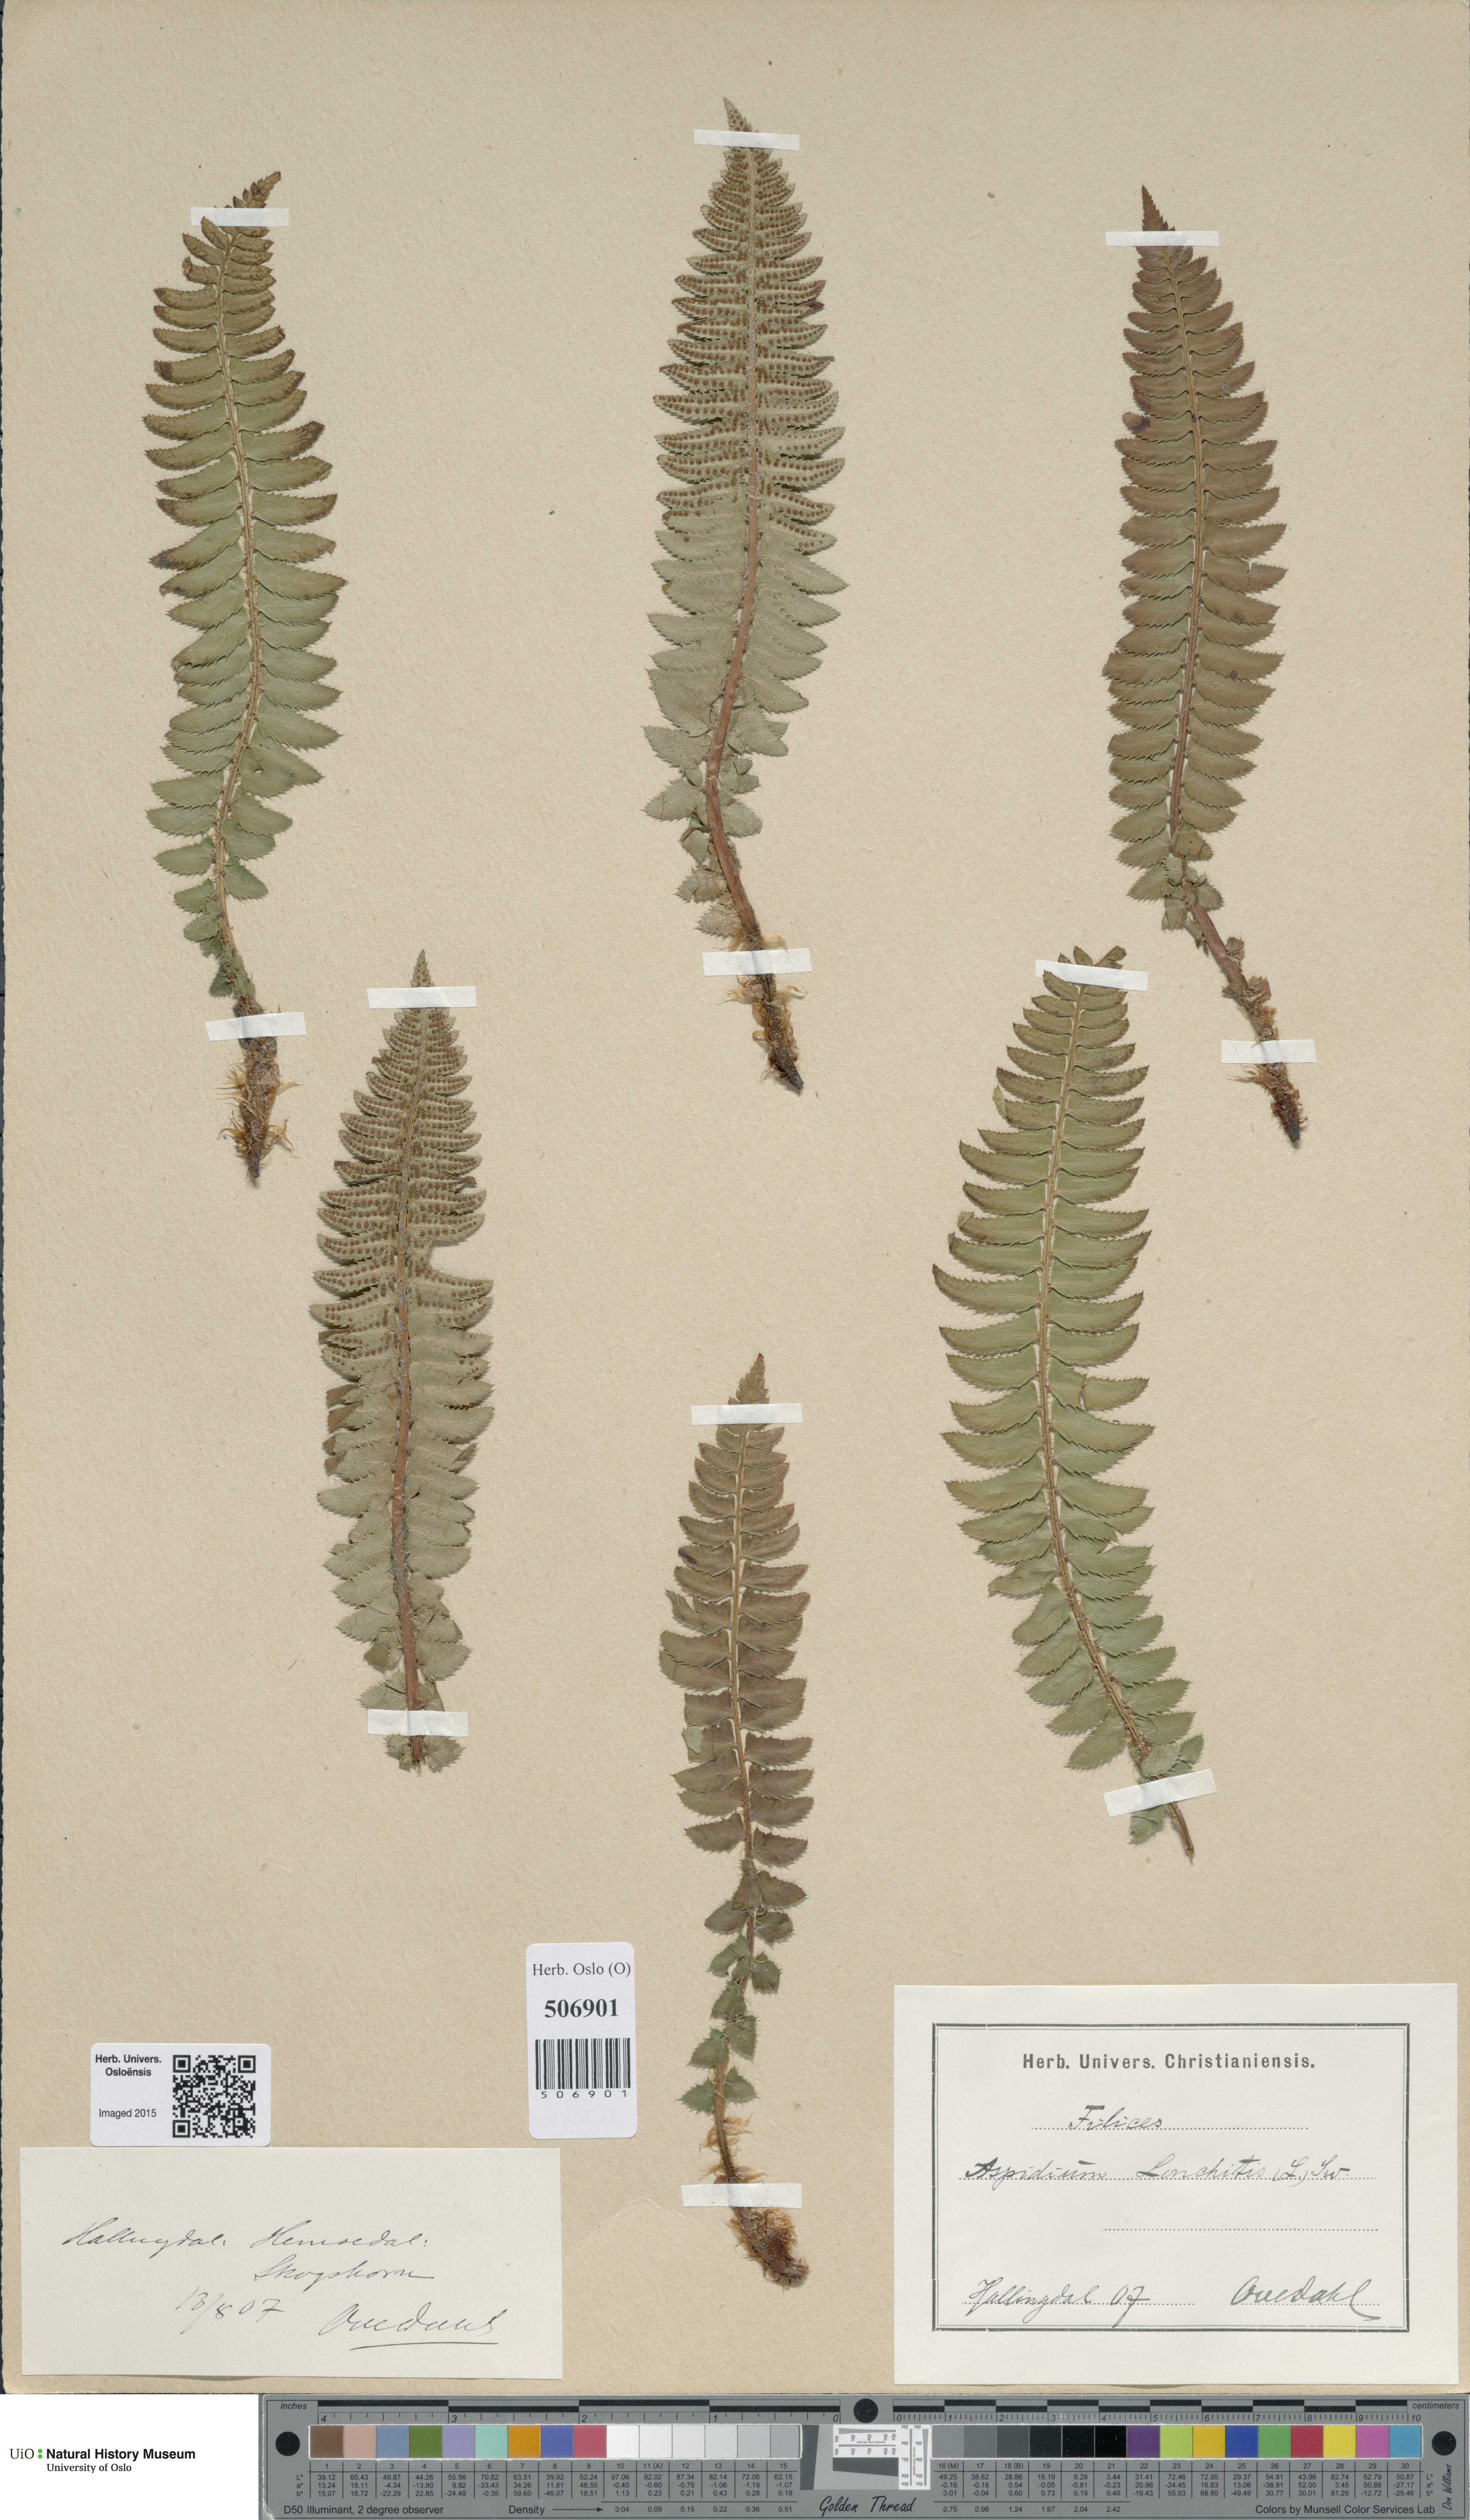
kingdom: Plantae
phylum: Tracheophyta
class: Polypodiopsida
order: Polypodiales
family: Dryopteridaceae
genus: Polystichum
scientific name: Polystichum lonchitis
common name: Holly fern
